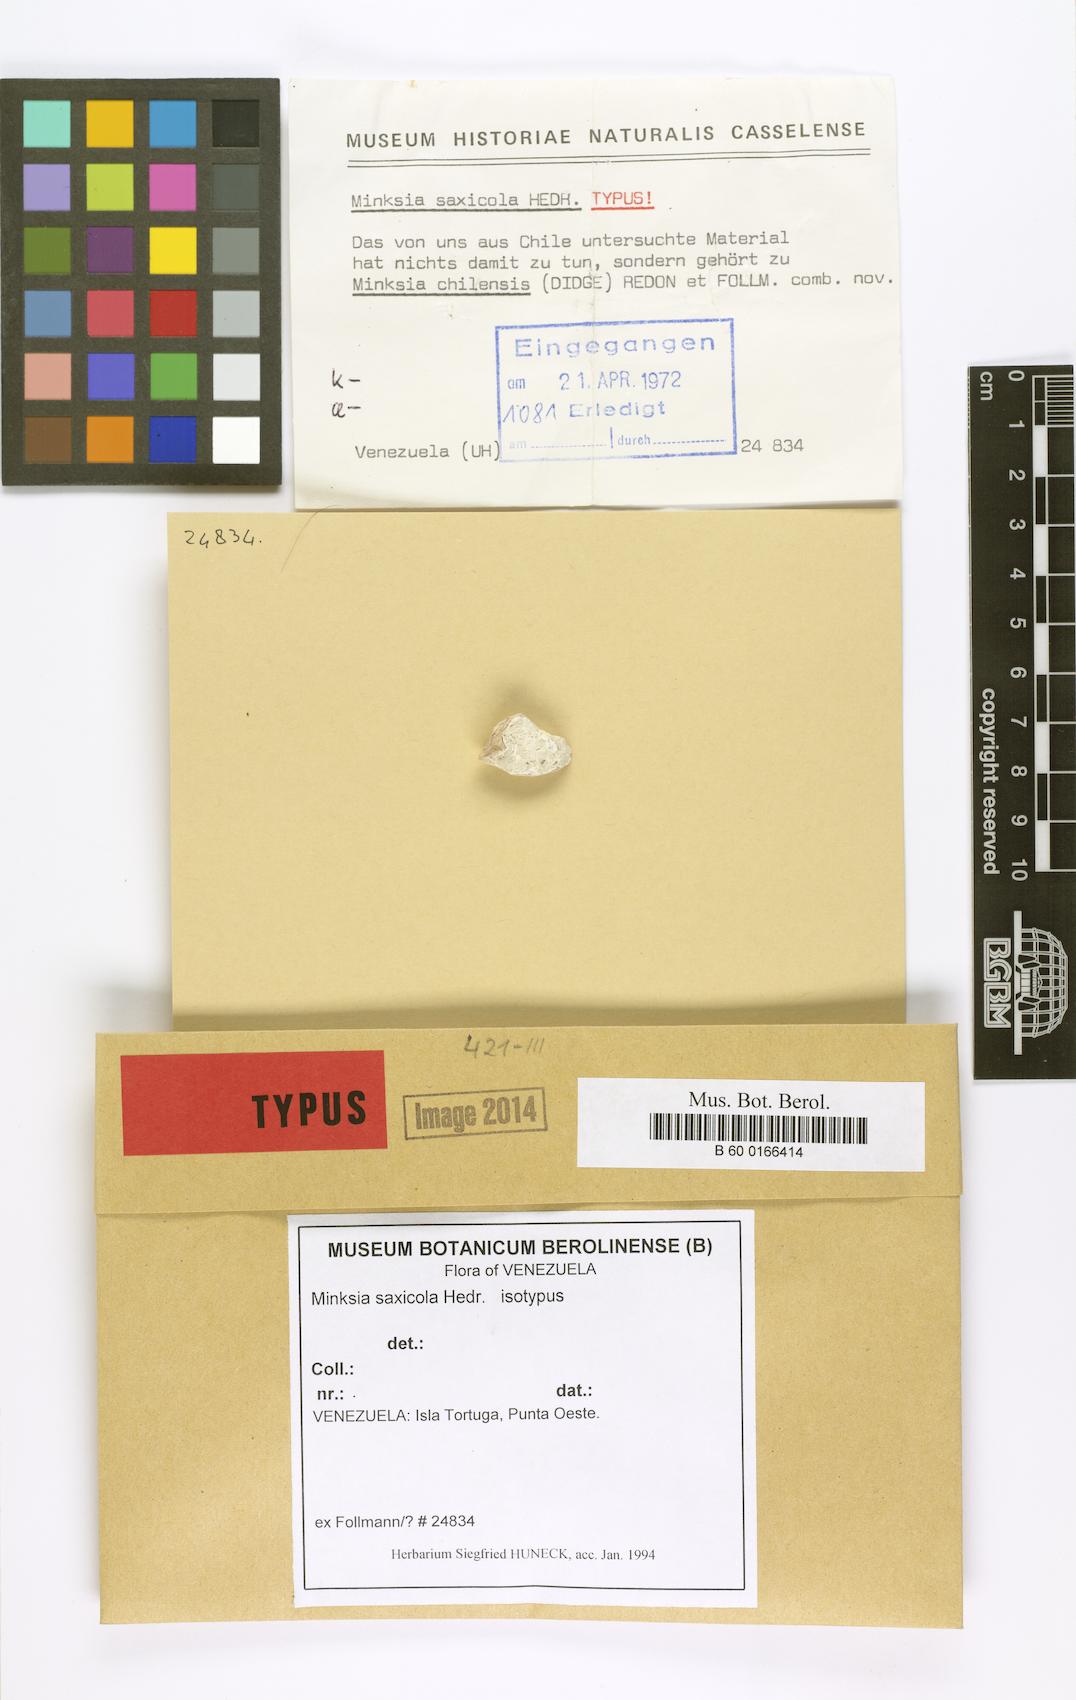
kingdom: Fungi
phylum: Ascomycota
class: Arthoniomycetes
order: Arthoniales
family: Roccellaceae
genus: Minksia
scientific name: Minksia
